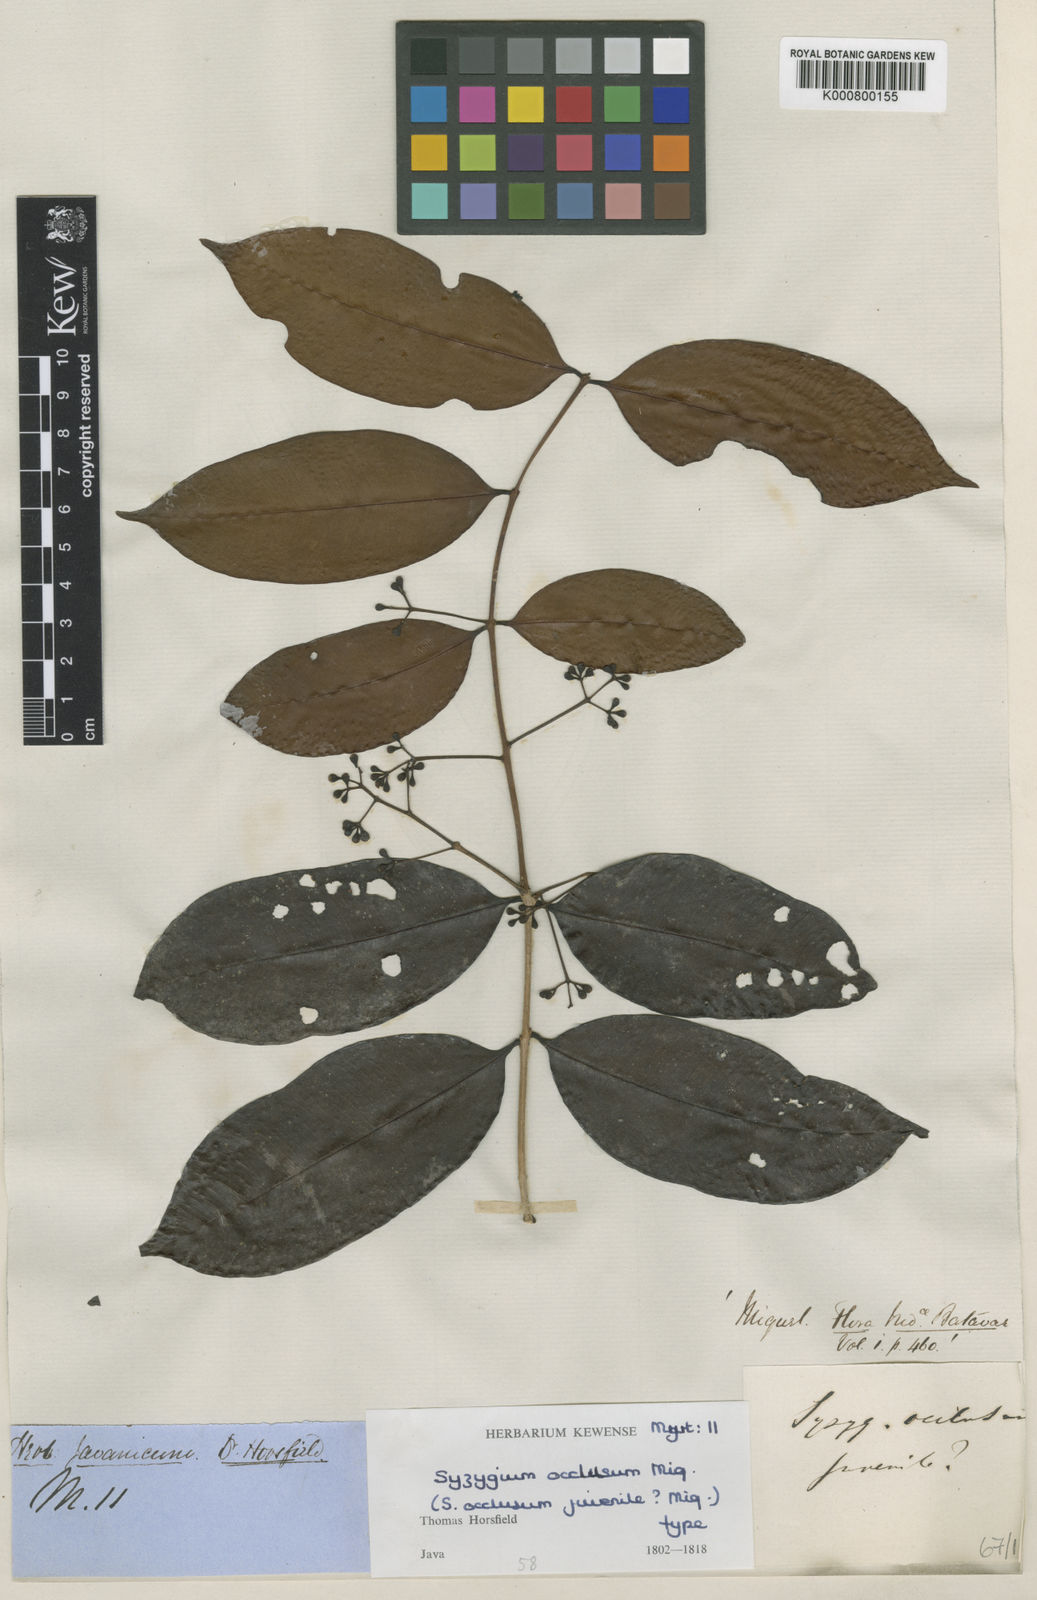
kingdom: Plantae
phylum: Tracheophyta
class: Magnoliopsida
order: Myrtales
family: Myrtaceae
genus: Syzygium
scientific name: Syzygium occlusum
